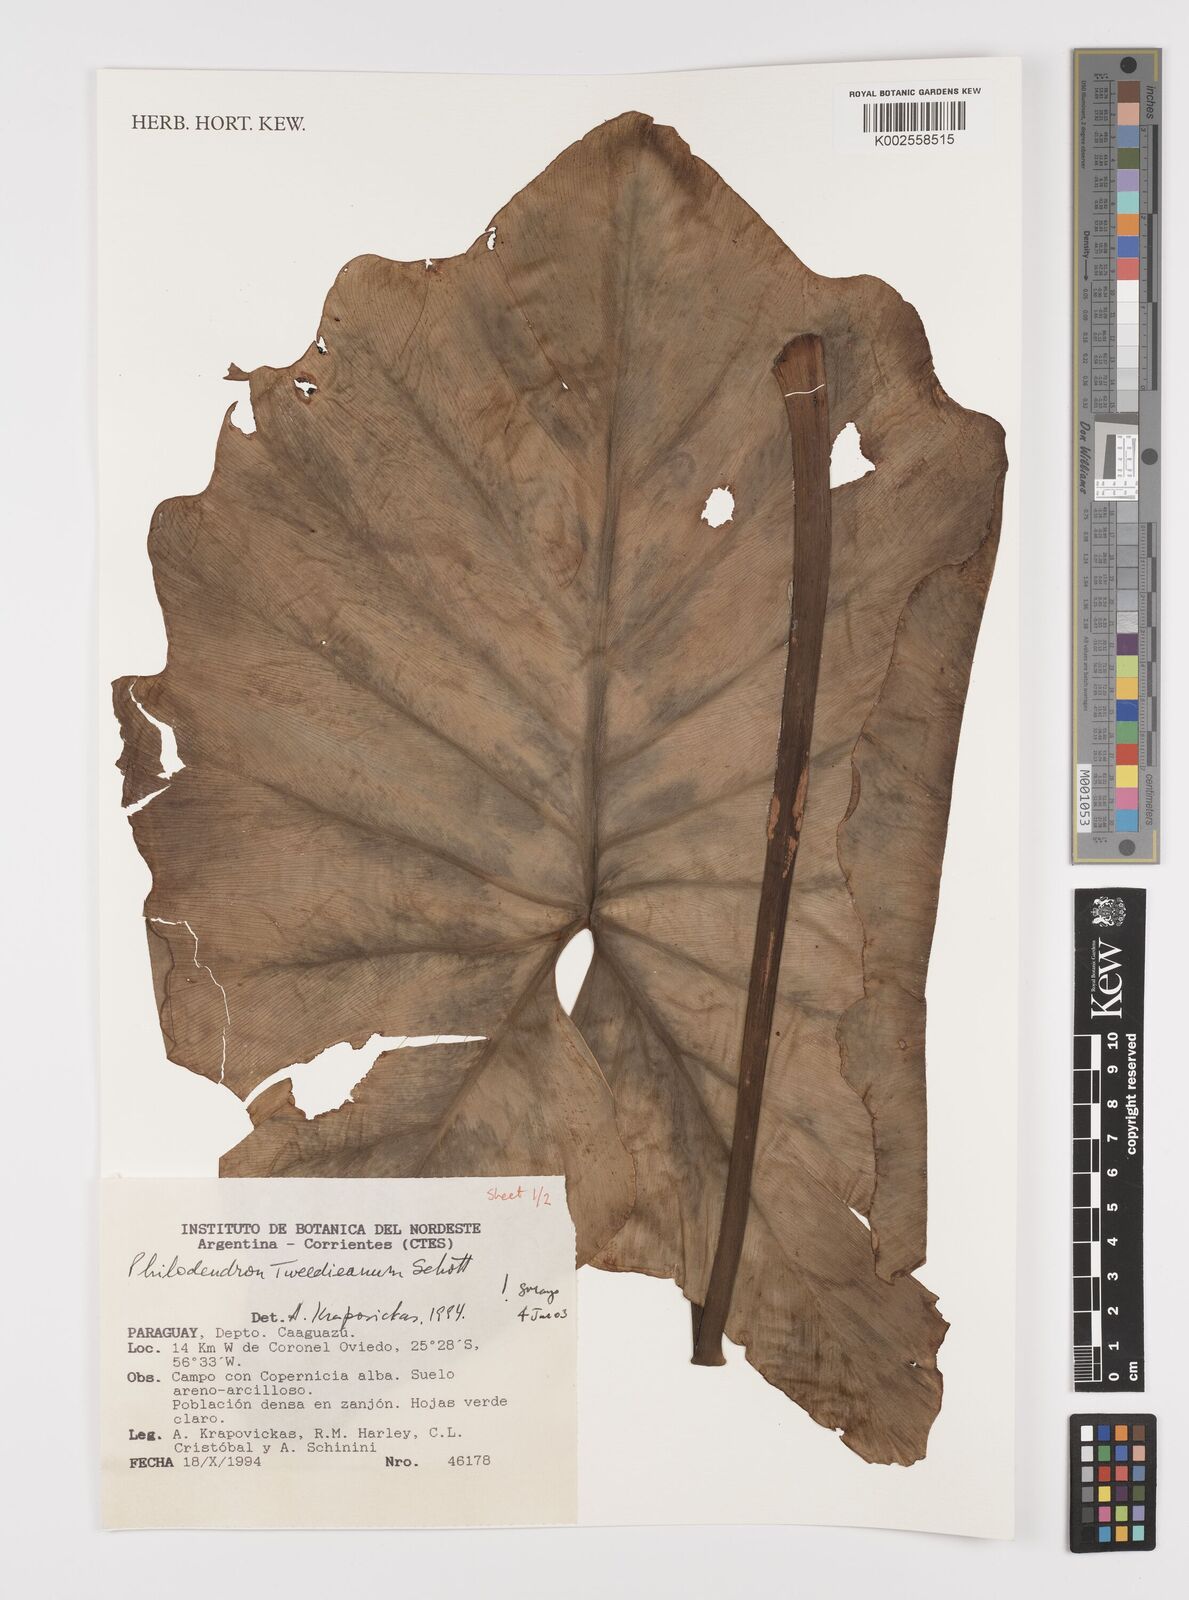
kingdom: Plantae
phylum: Tracheophyta
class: Liliopsida
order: Alismatales
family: Araceae
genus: Thaumatophyllum
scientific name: Thaumatophyllum tweedieanum
